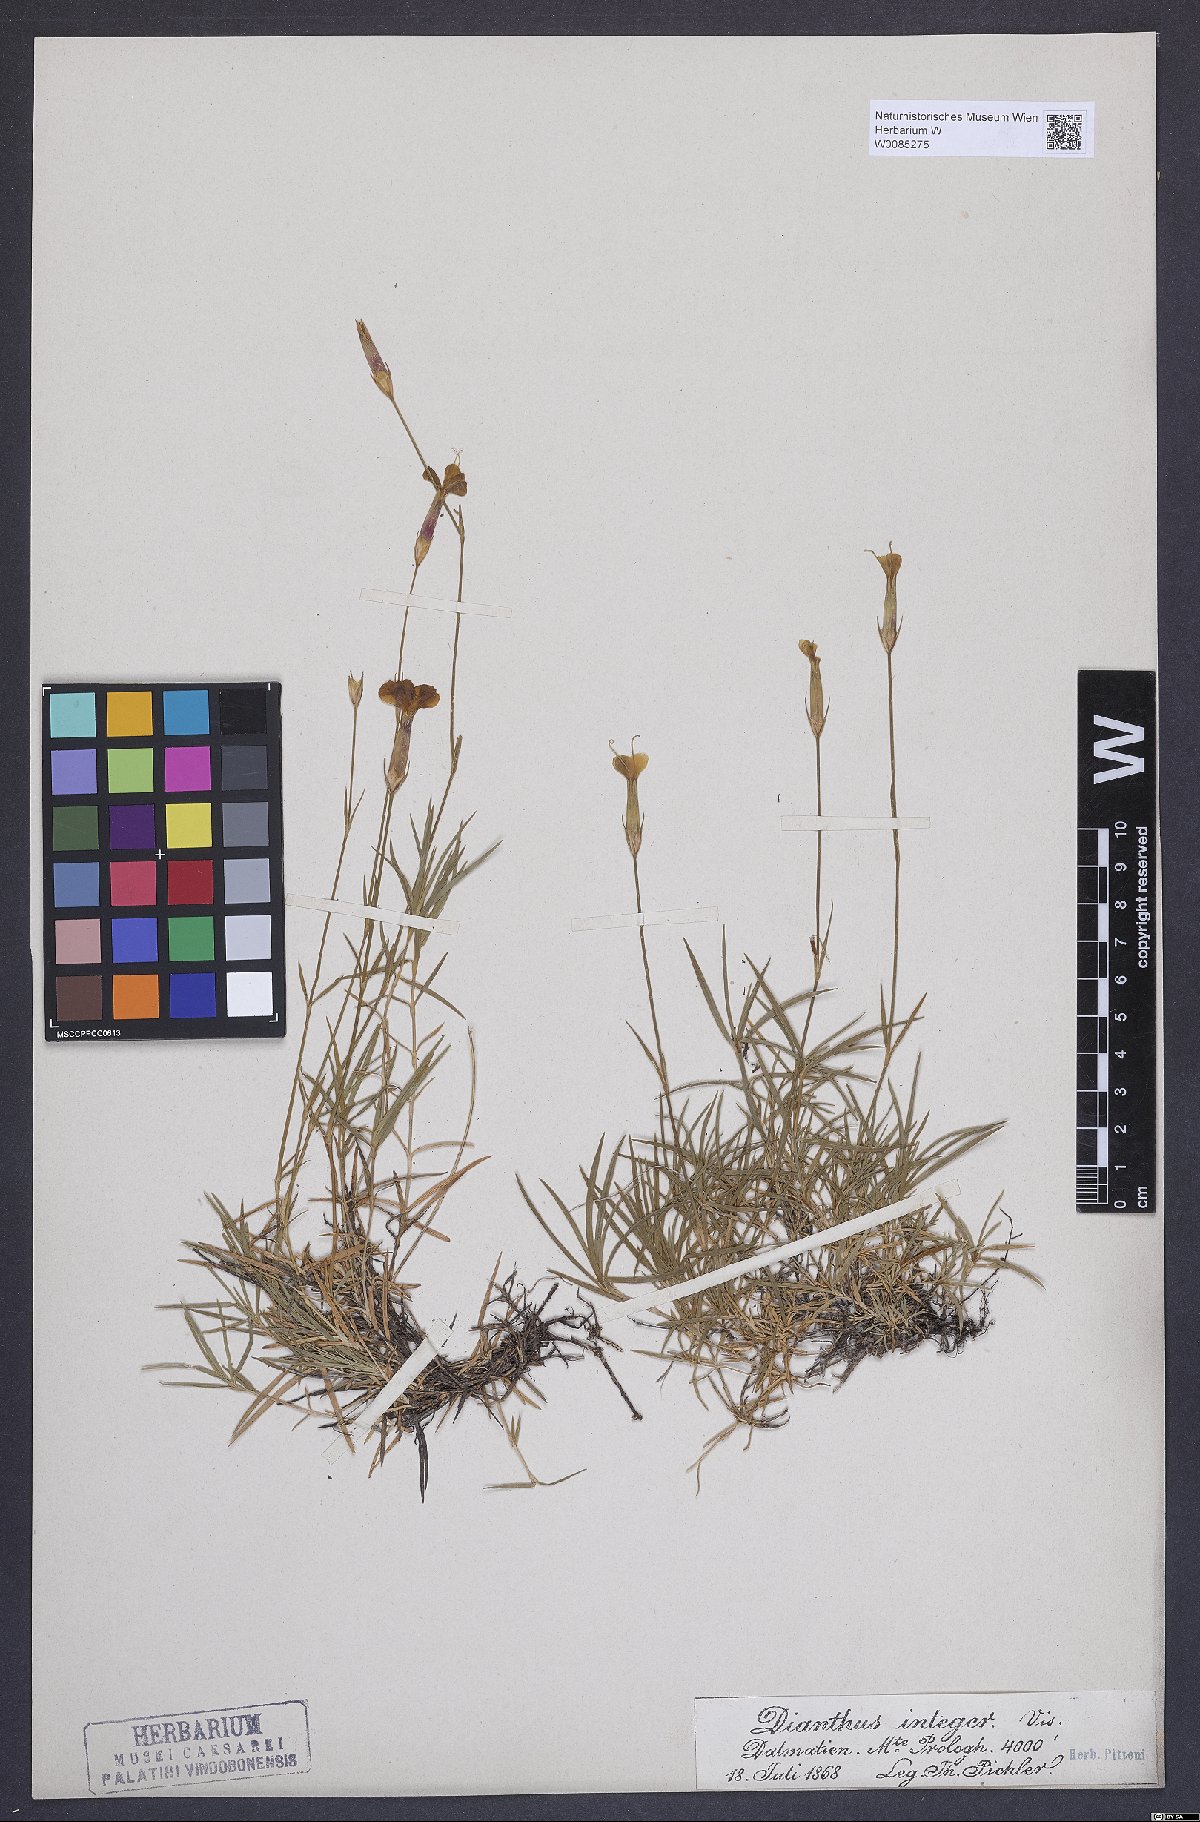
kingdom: Plantae
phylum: Tracheophyta
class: Magnoliopsida
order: Caryophyllales
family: Caryophyllaceae
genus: Dianthus
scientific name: Dianthus petraeus
